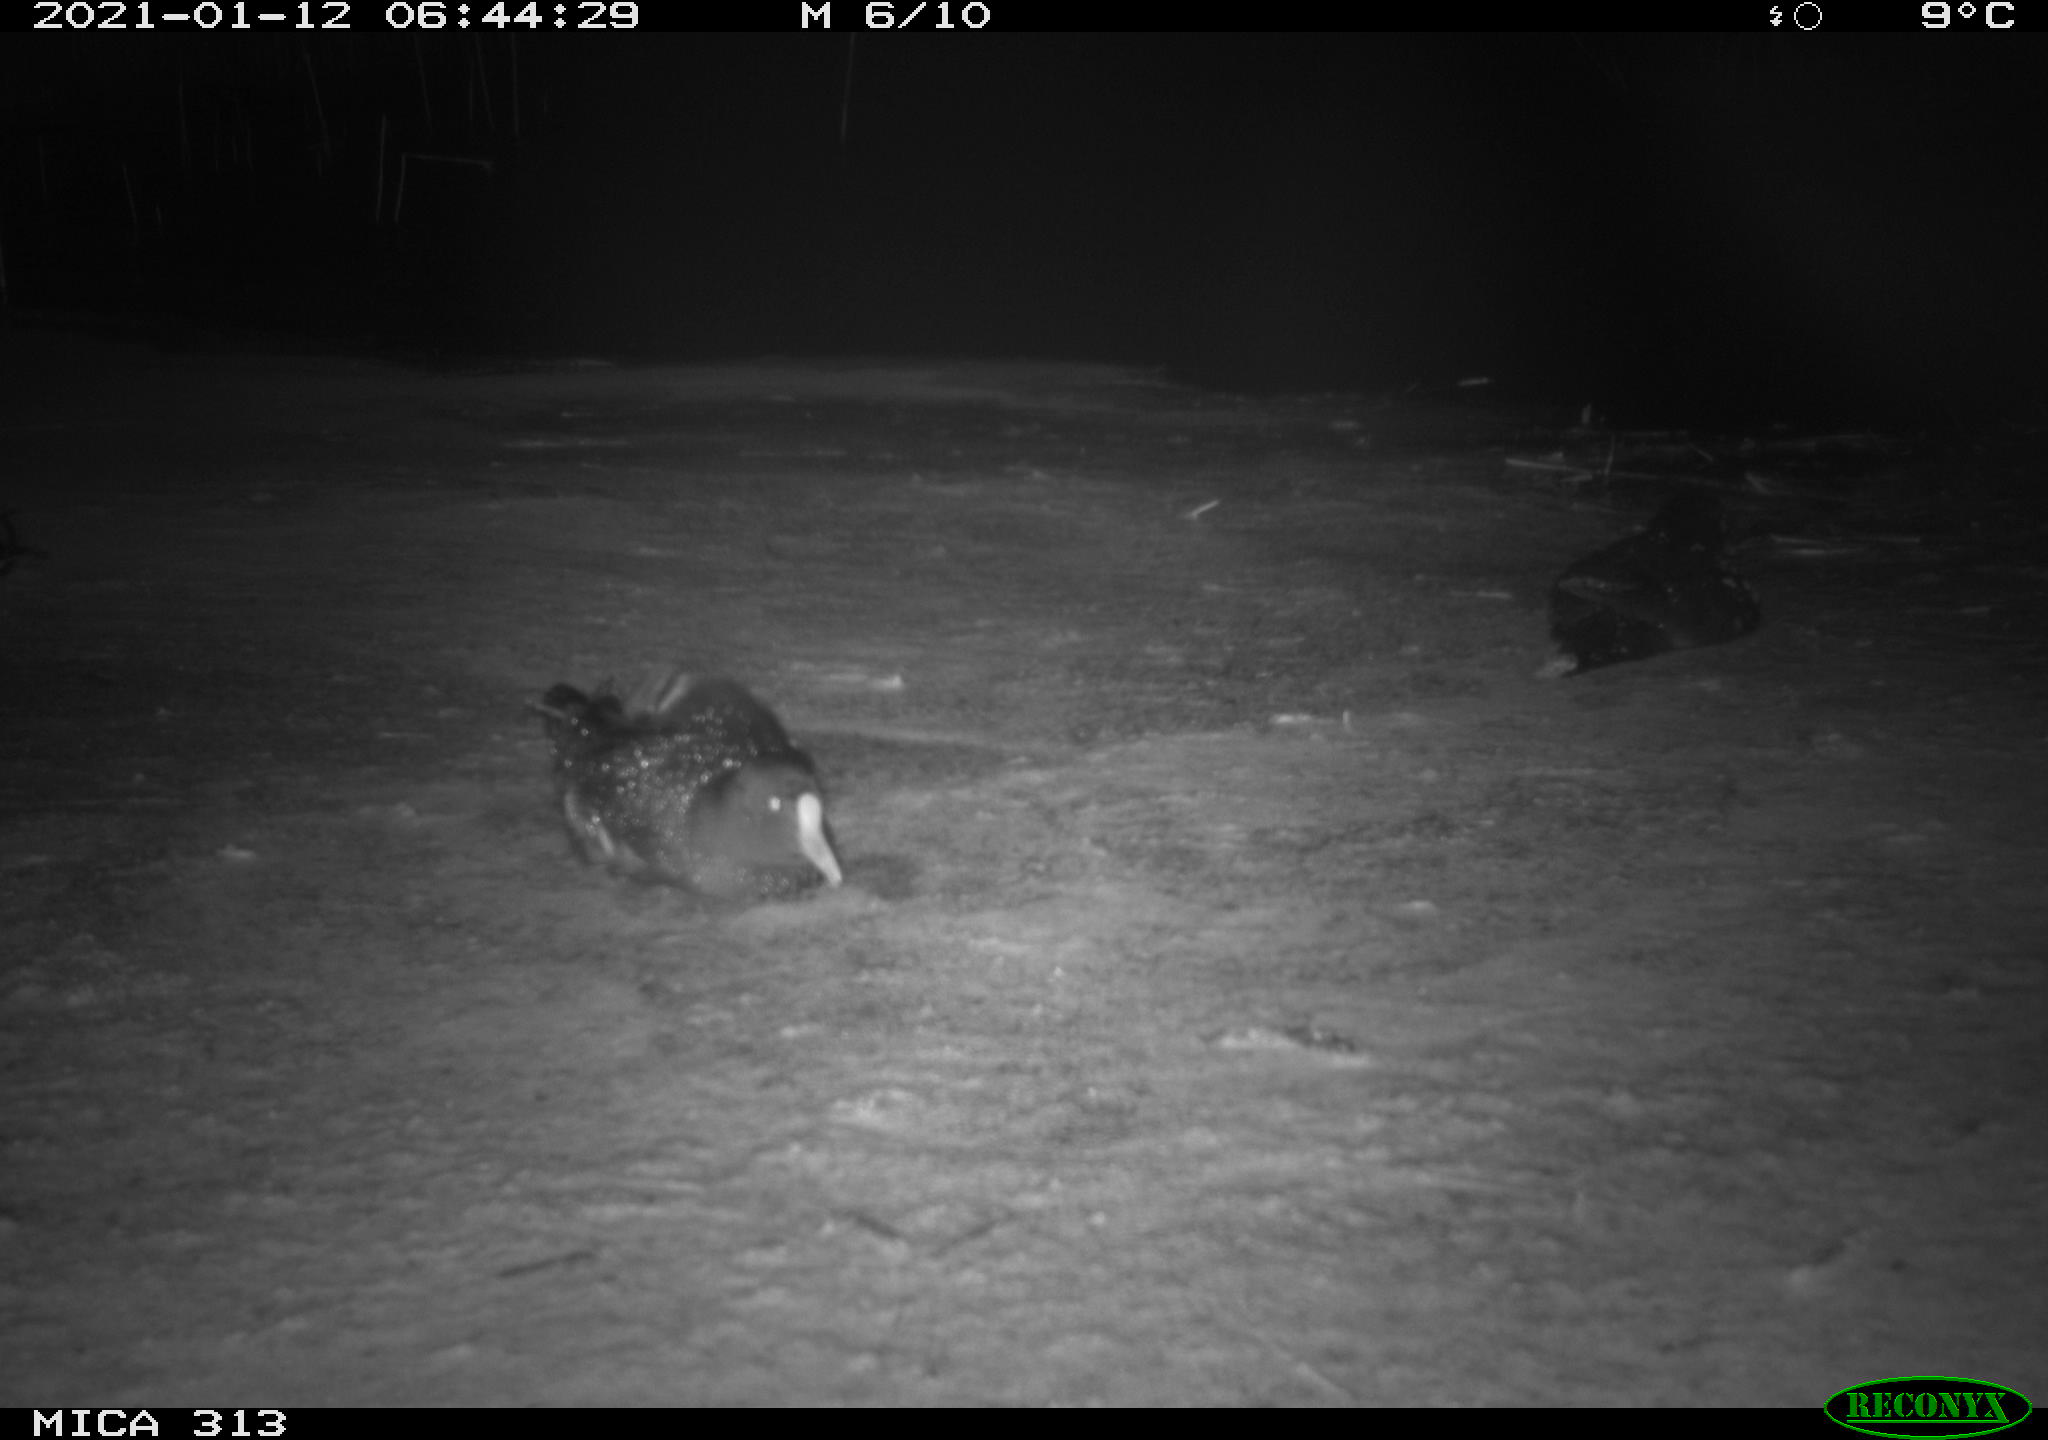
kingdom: Animalia
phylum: Chordata
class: Aves
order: Gruiformes
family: Rallidae
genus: Gallinula
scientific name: Gallinula chloropus
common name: Common moorhen
